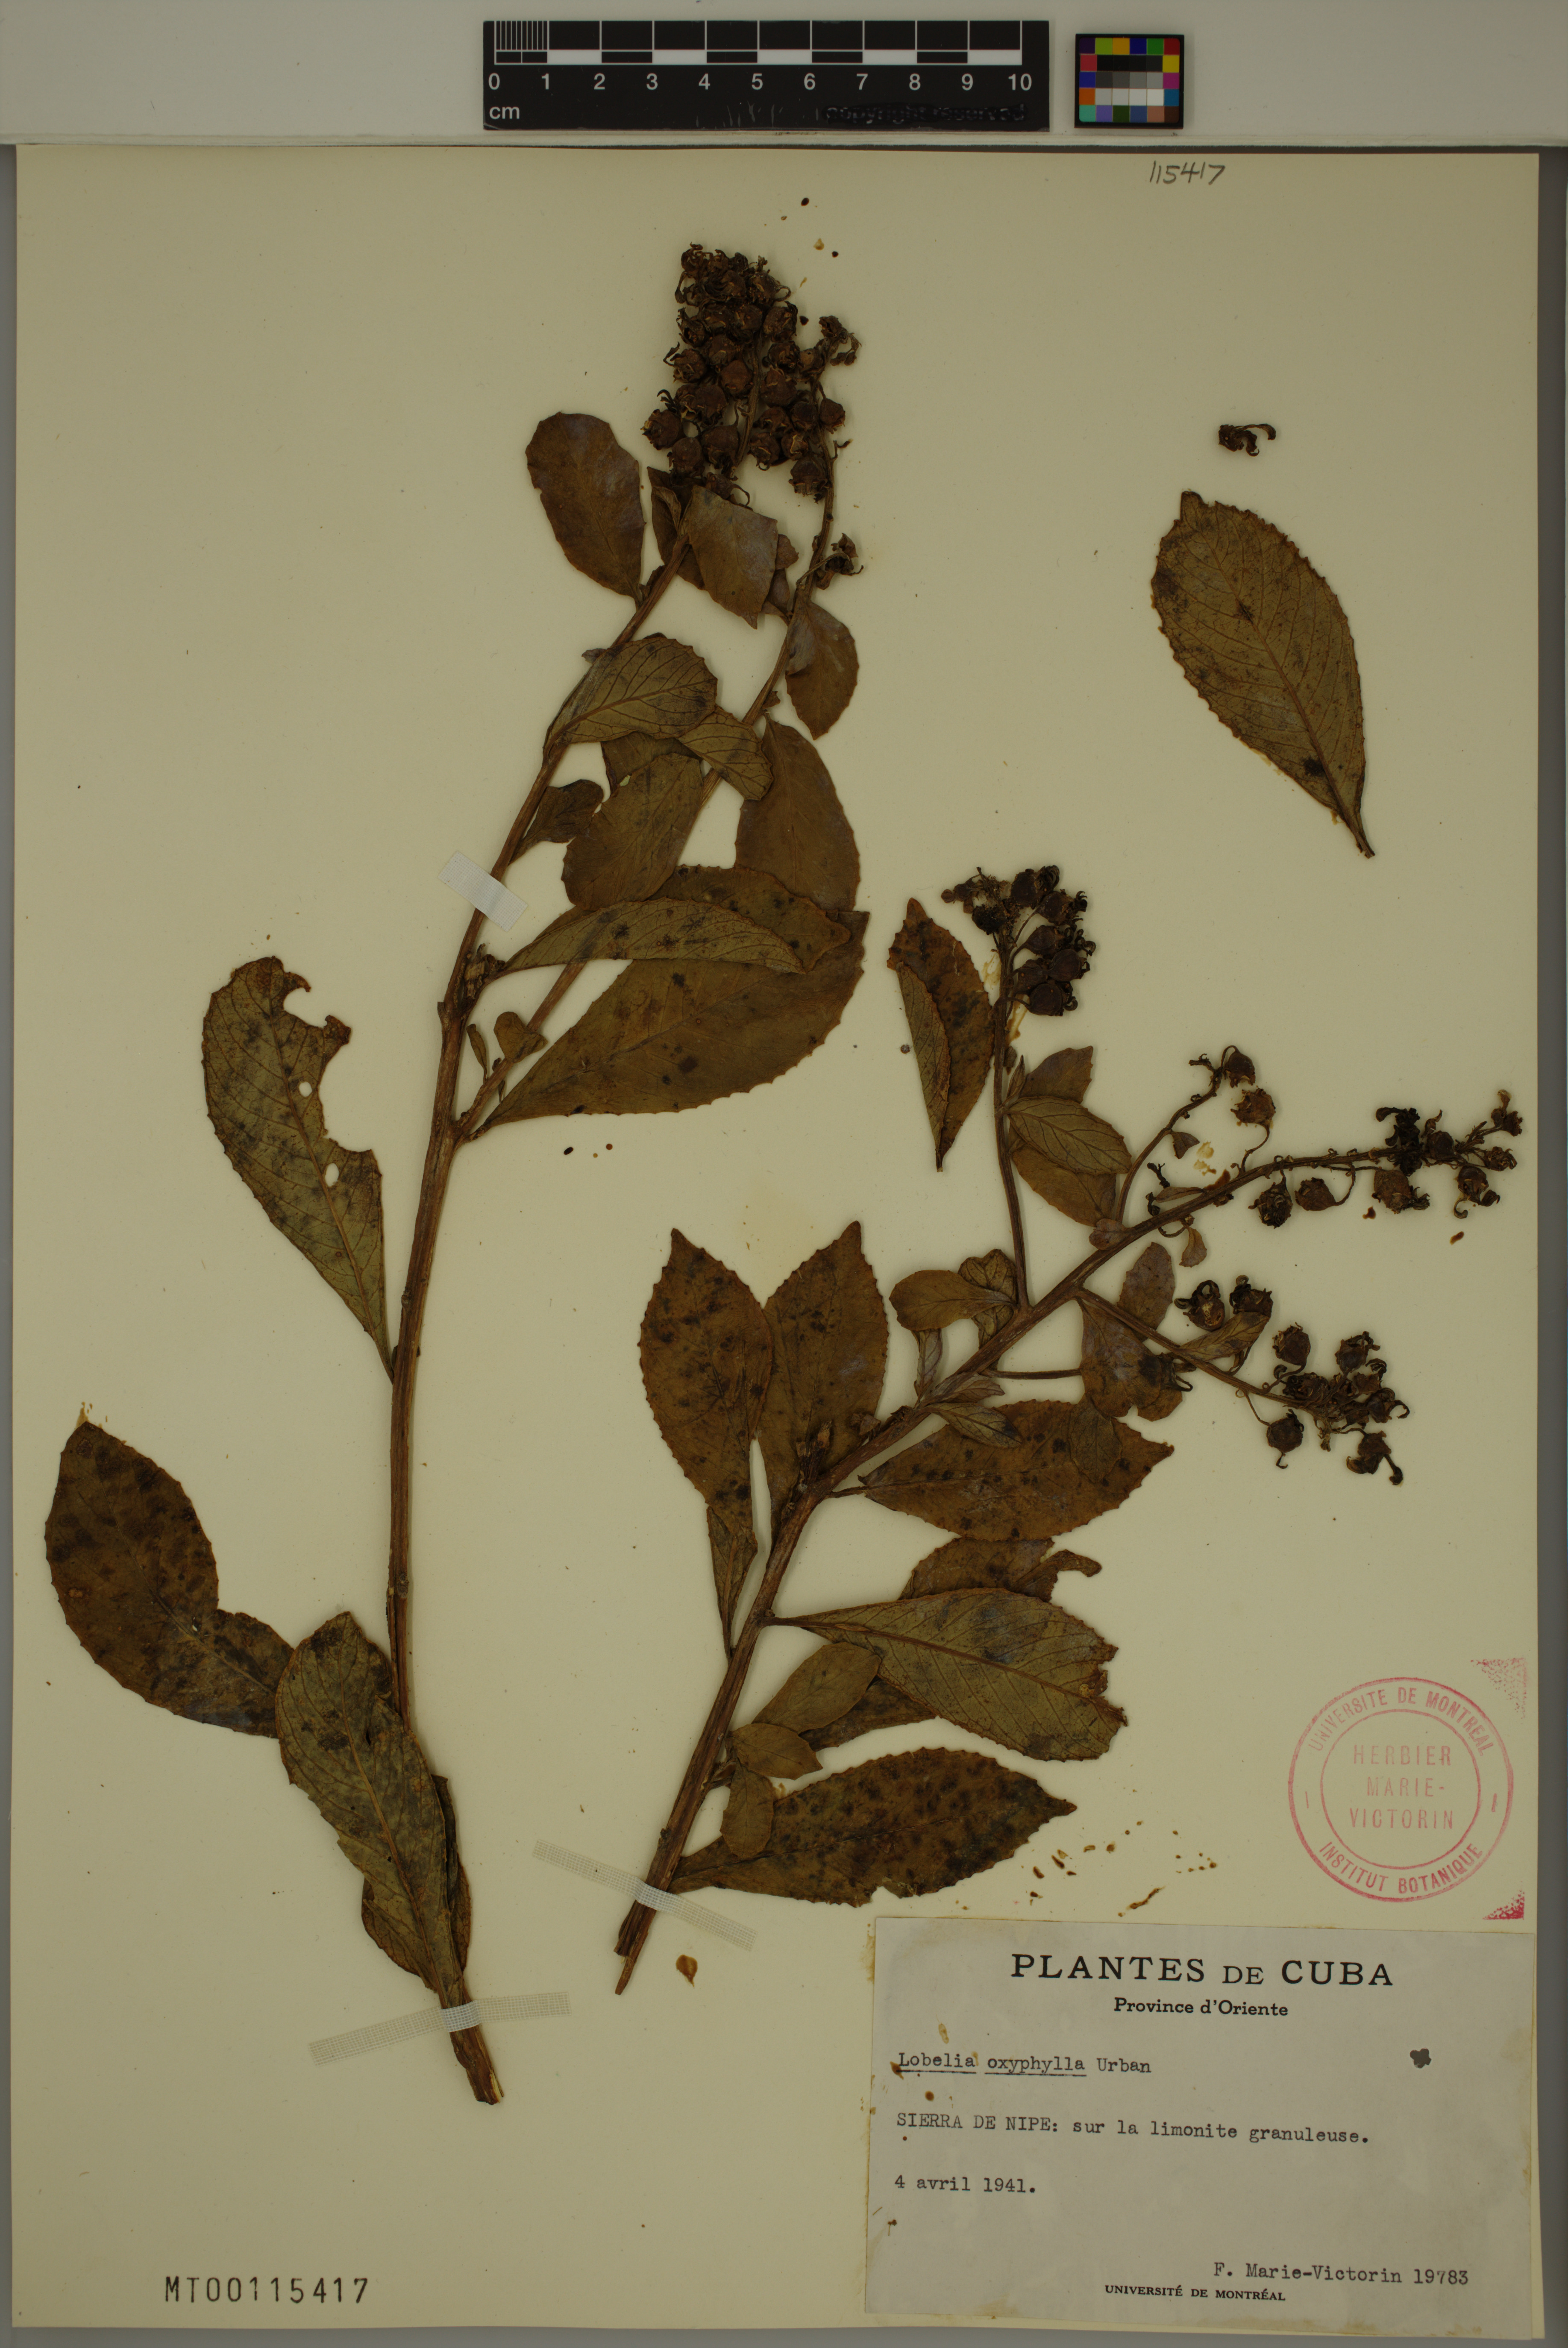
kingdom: Plantae
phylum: Tracheophyta
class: Magnoliopsida
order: Asterales
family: Campanulaceae
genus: Lobelia
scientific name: Lobelia oxyphylla
